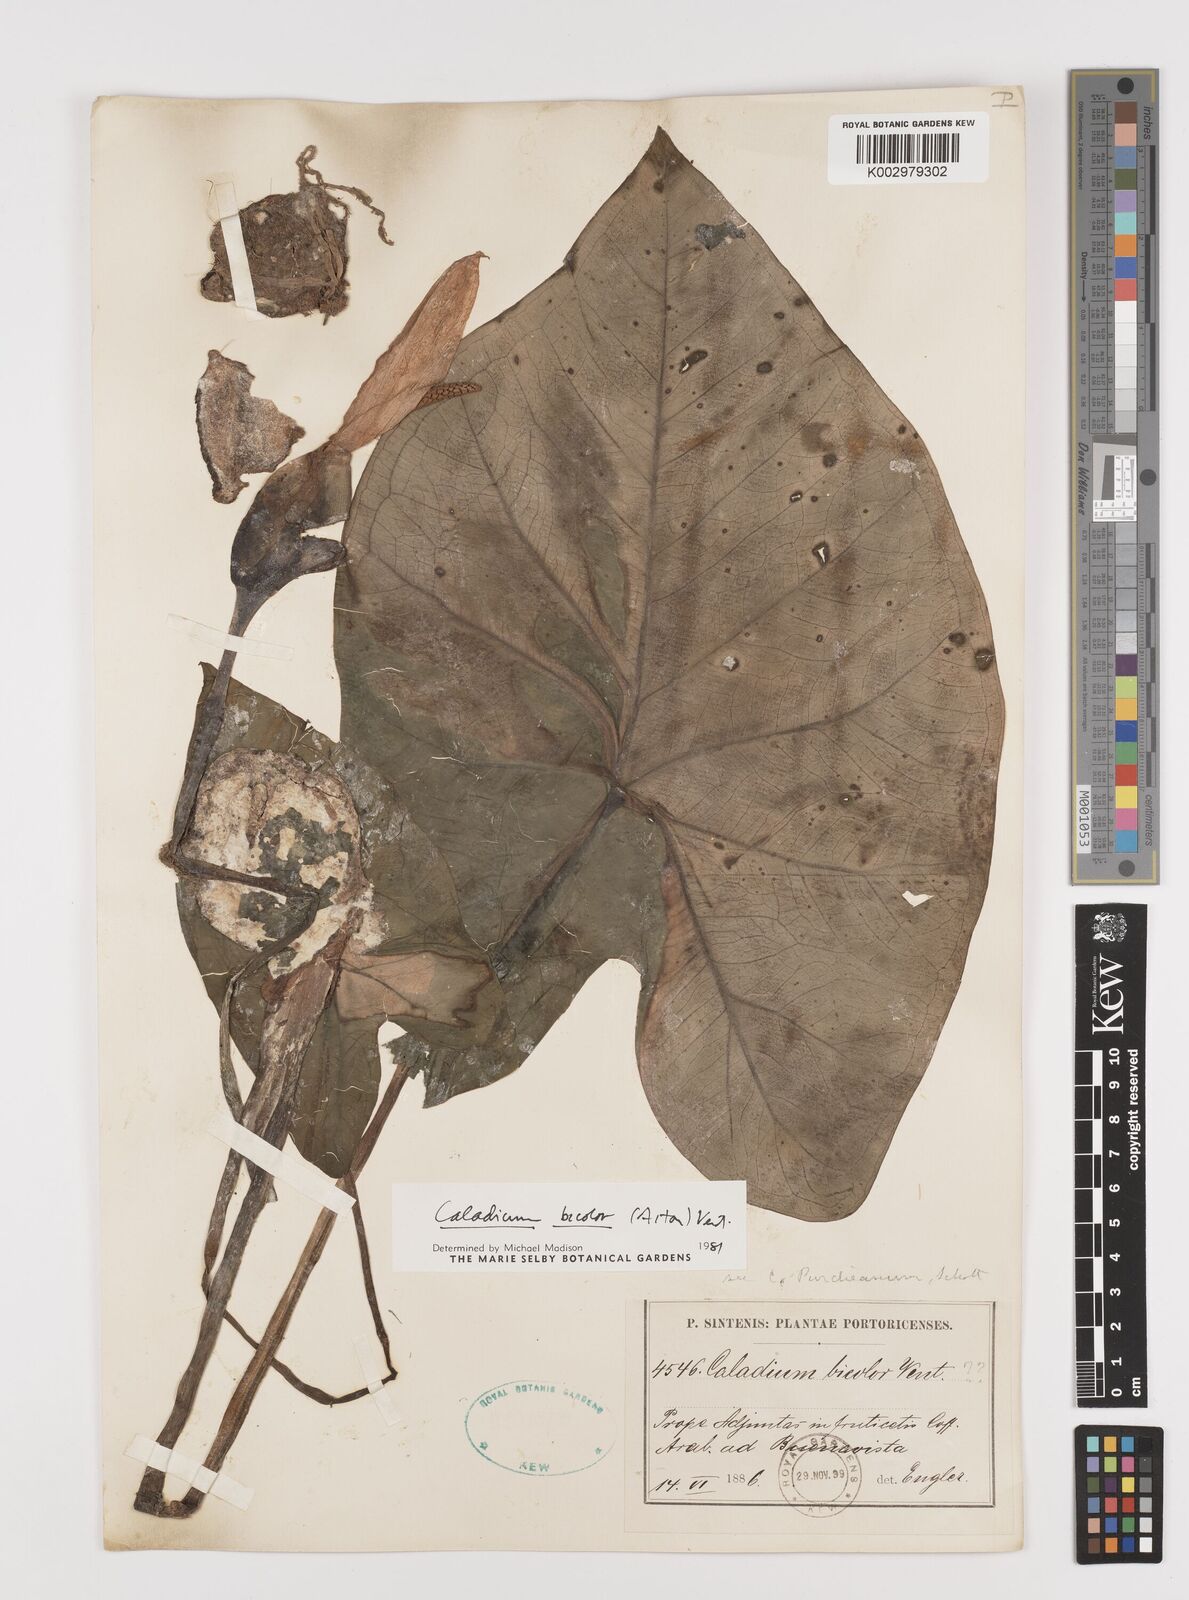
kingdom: Plantae
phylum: Tracheophyta
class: Liliopsida
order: Alismatales
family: Araceae
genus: Caladium
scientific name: Caladium bicolor
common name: Artist's pallet
